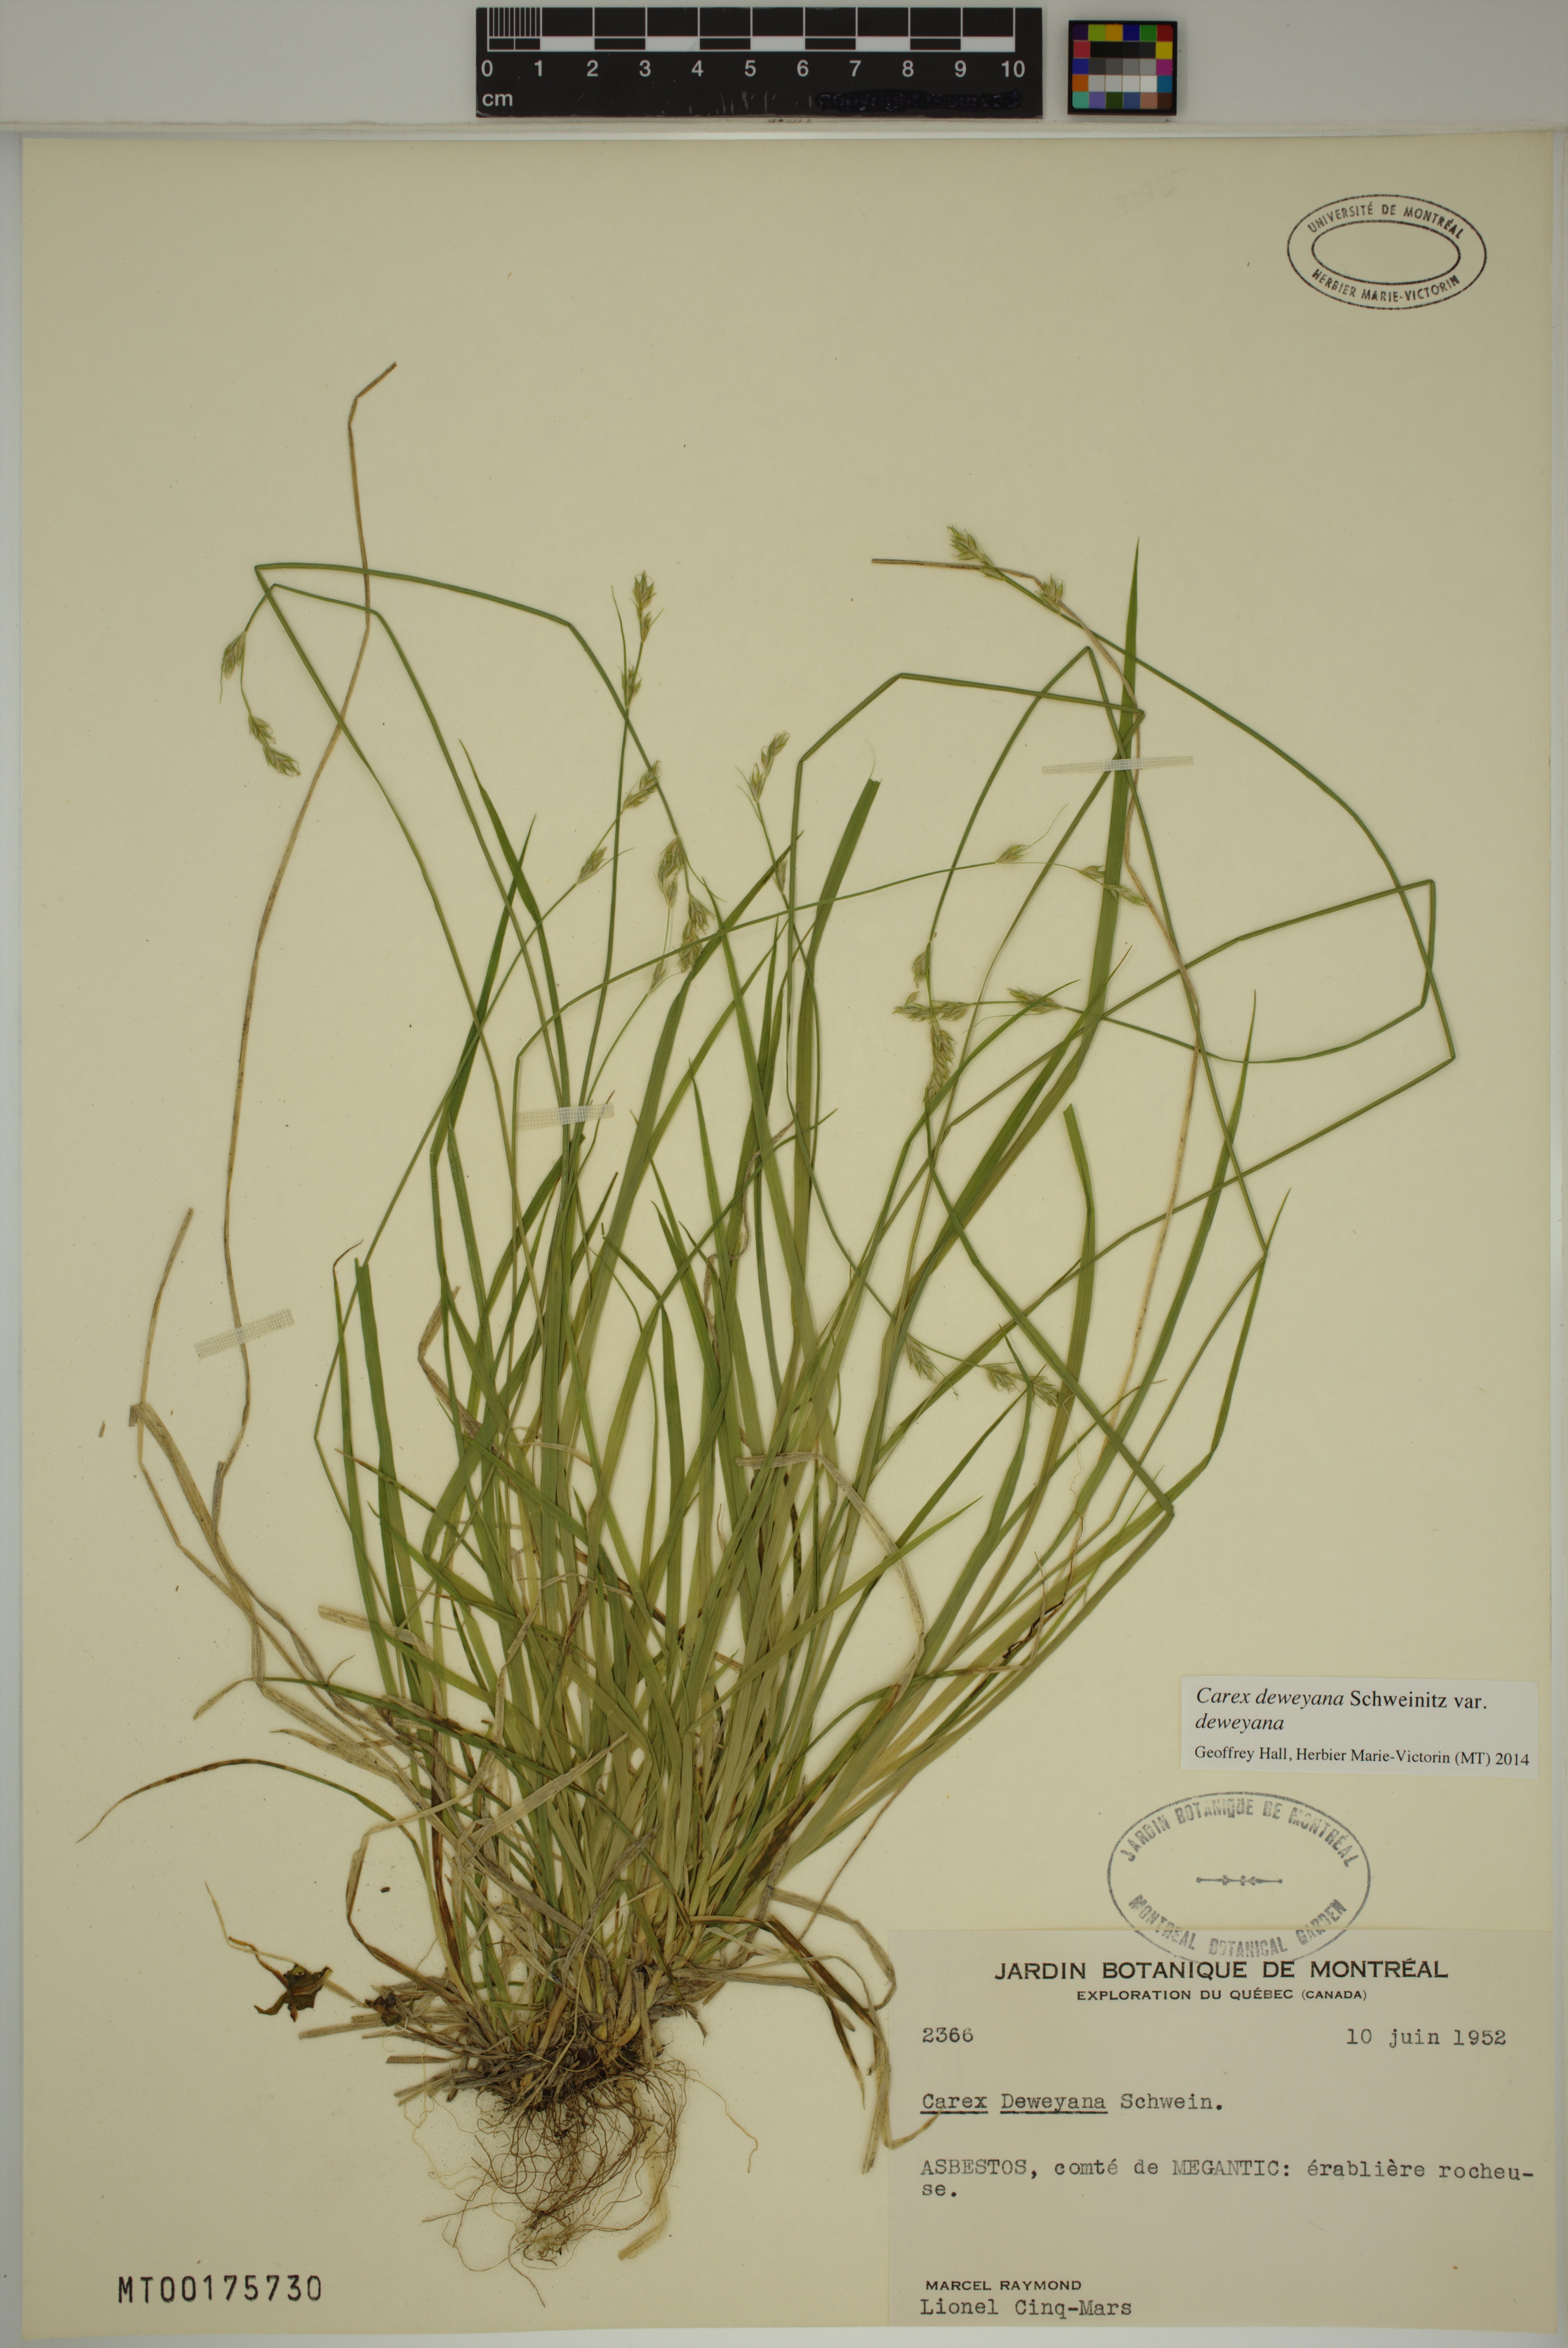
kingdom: Plantae
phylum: Tracheophyta
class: Liliopsida
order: Poales
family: Cyperaceae
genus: Carex
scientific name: Carex deweyana
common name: Dewey's sedge
